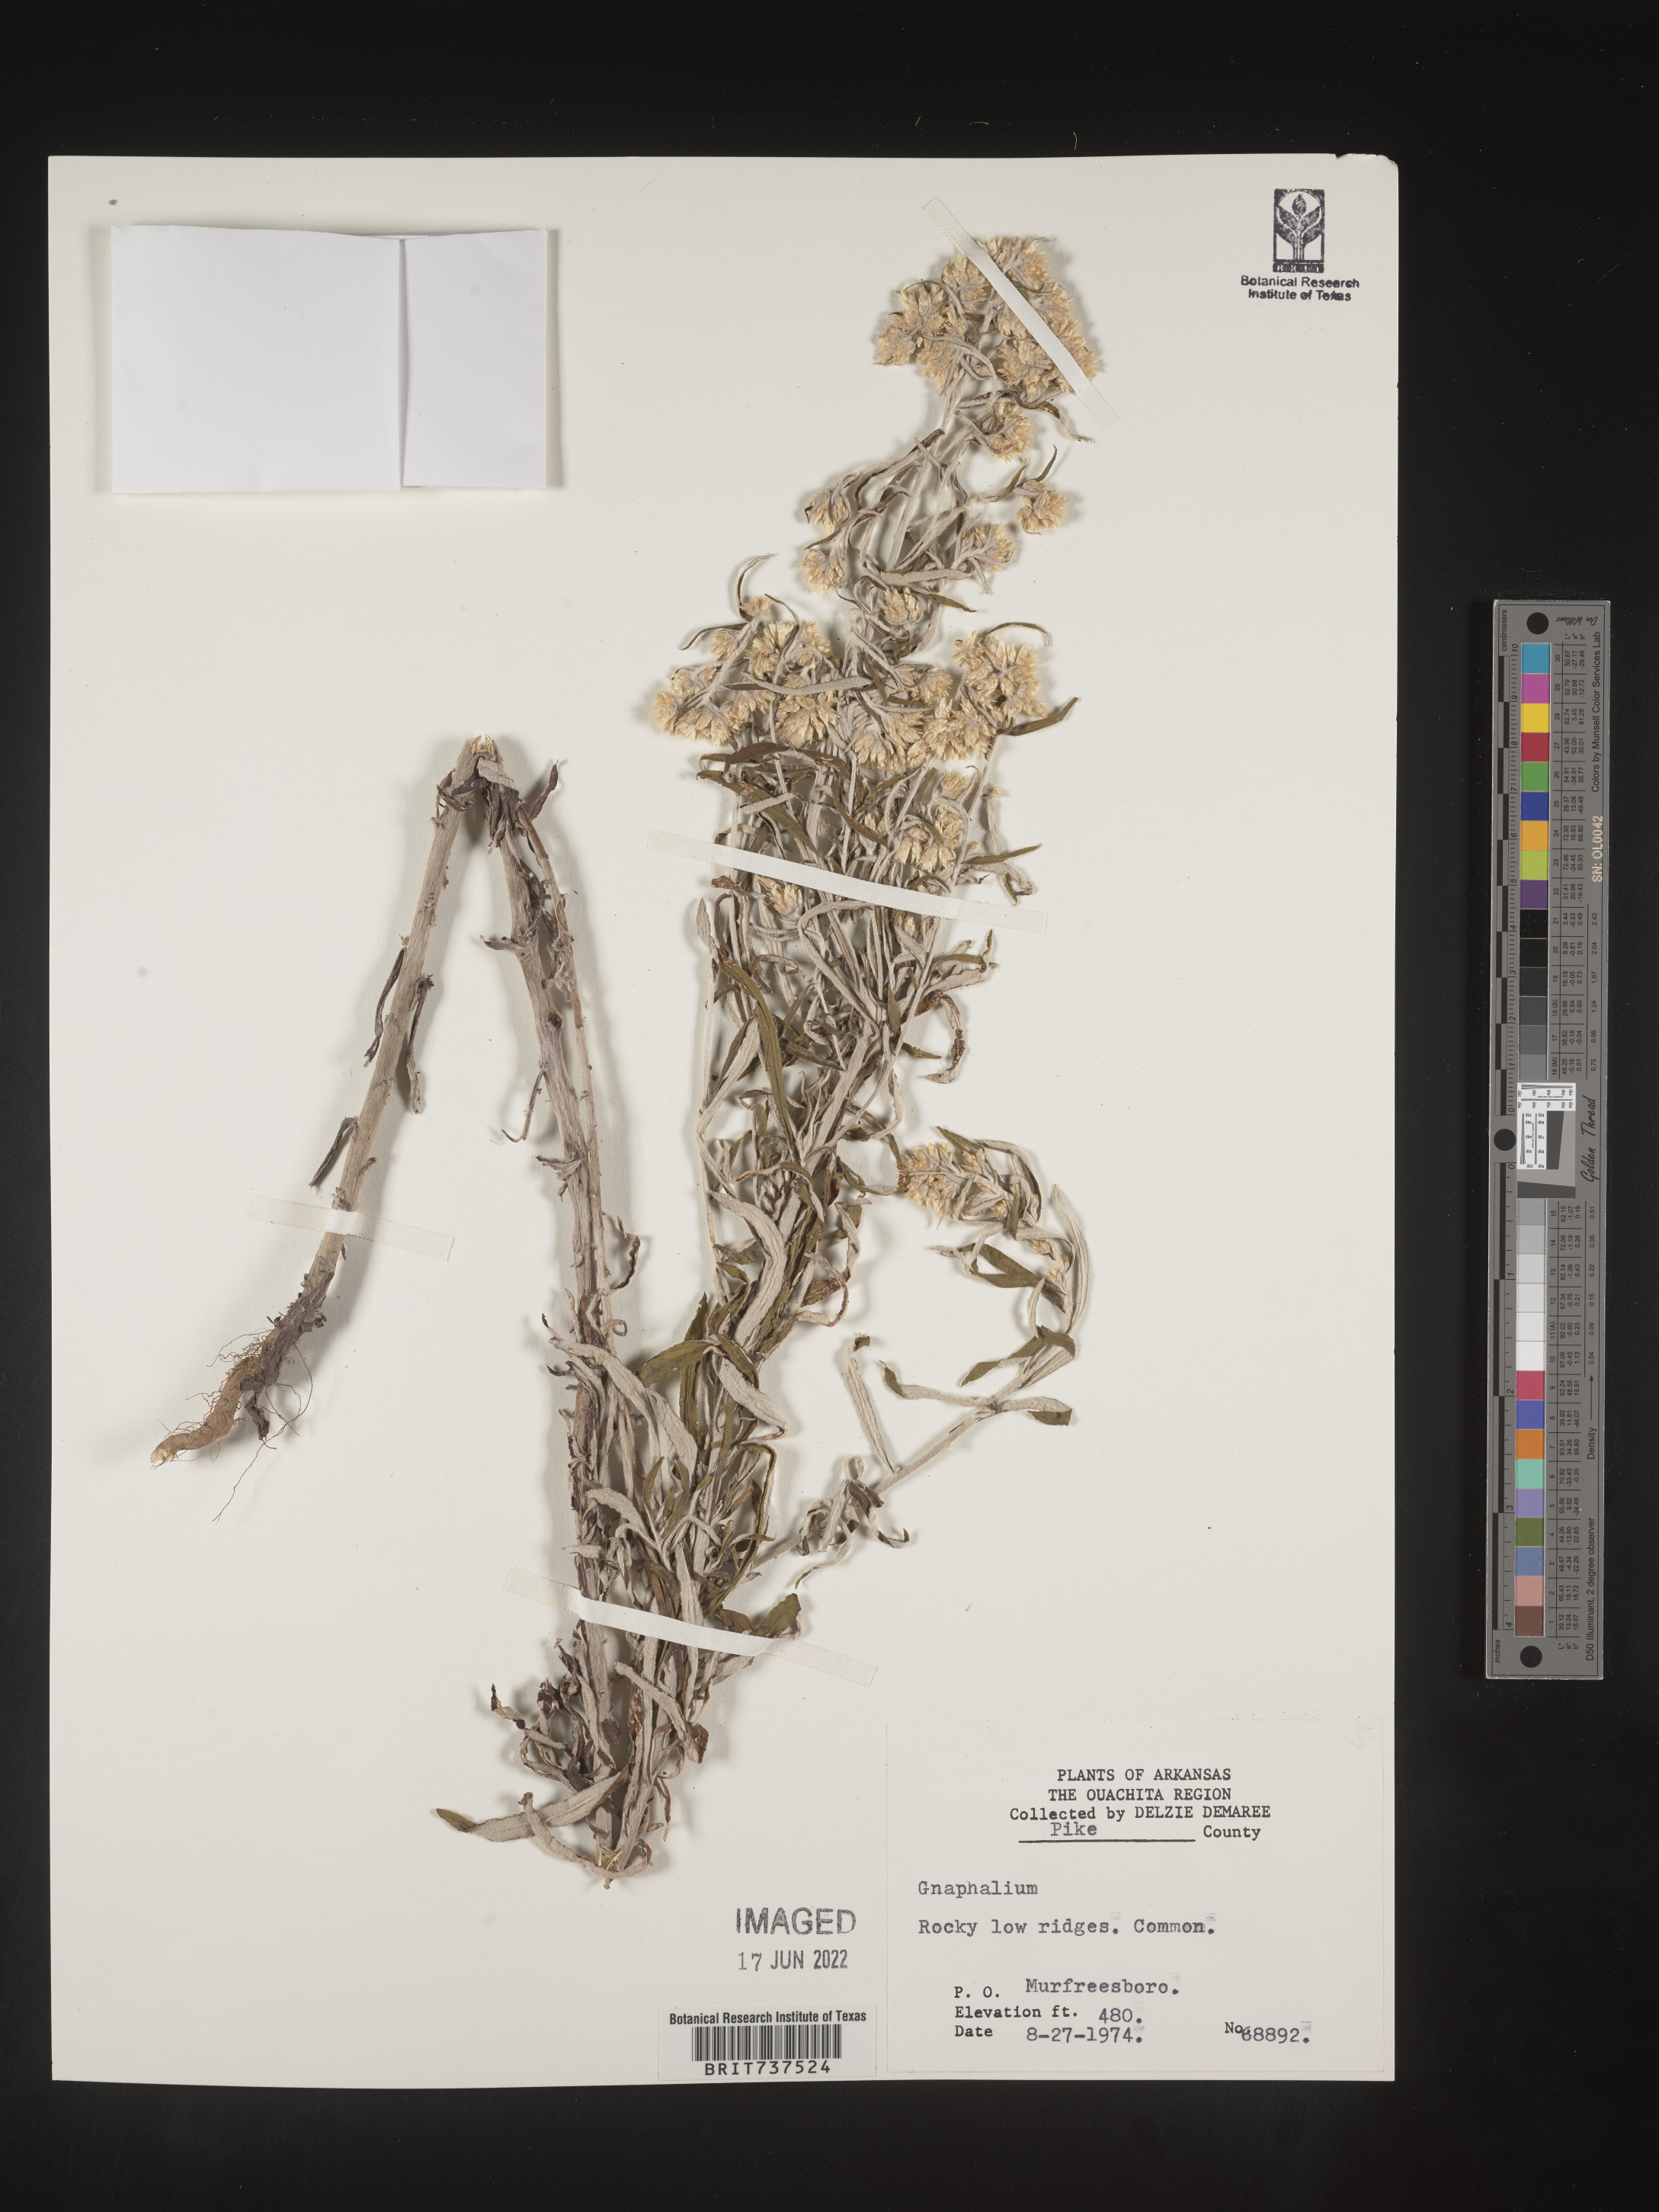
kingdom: Plantae
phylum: Tracheophyta
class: Magnoliopsida
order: Asterales
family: Asteraceae
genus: Pseudognaphalium
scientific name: Pseudognaphalium obtusifolium
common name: Eastern rabbit-tobacco
